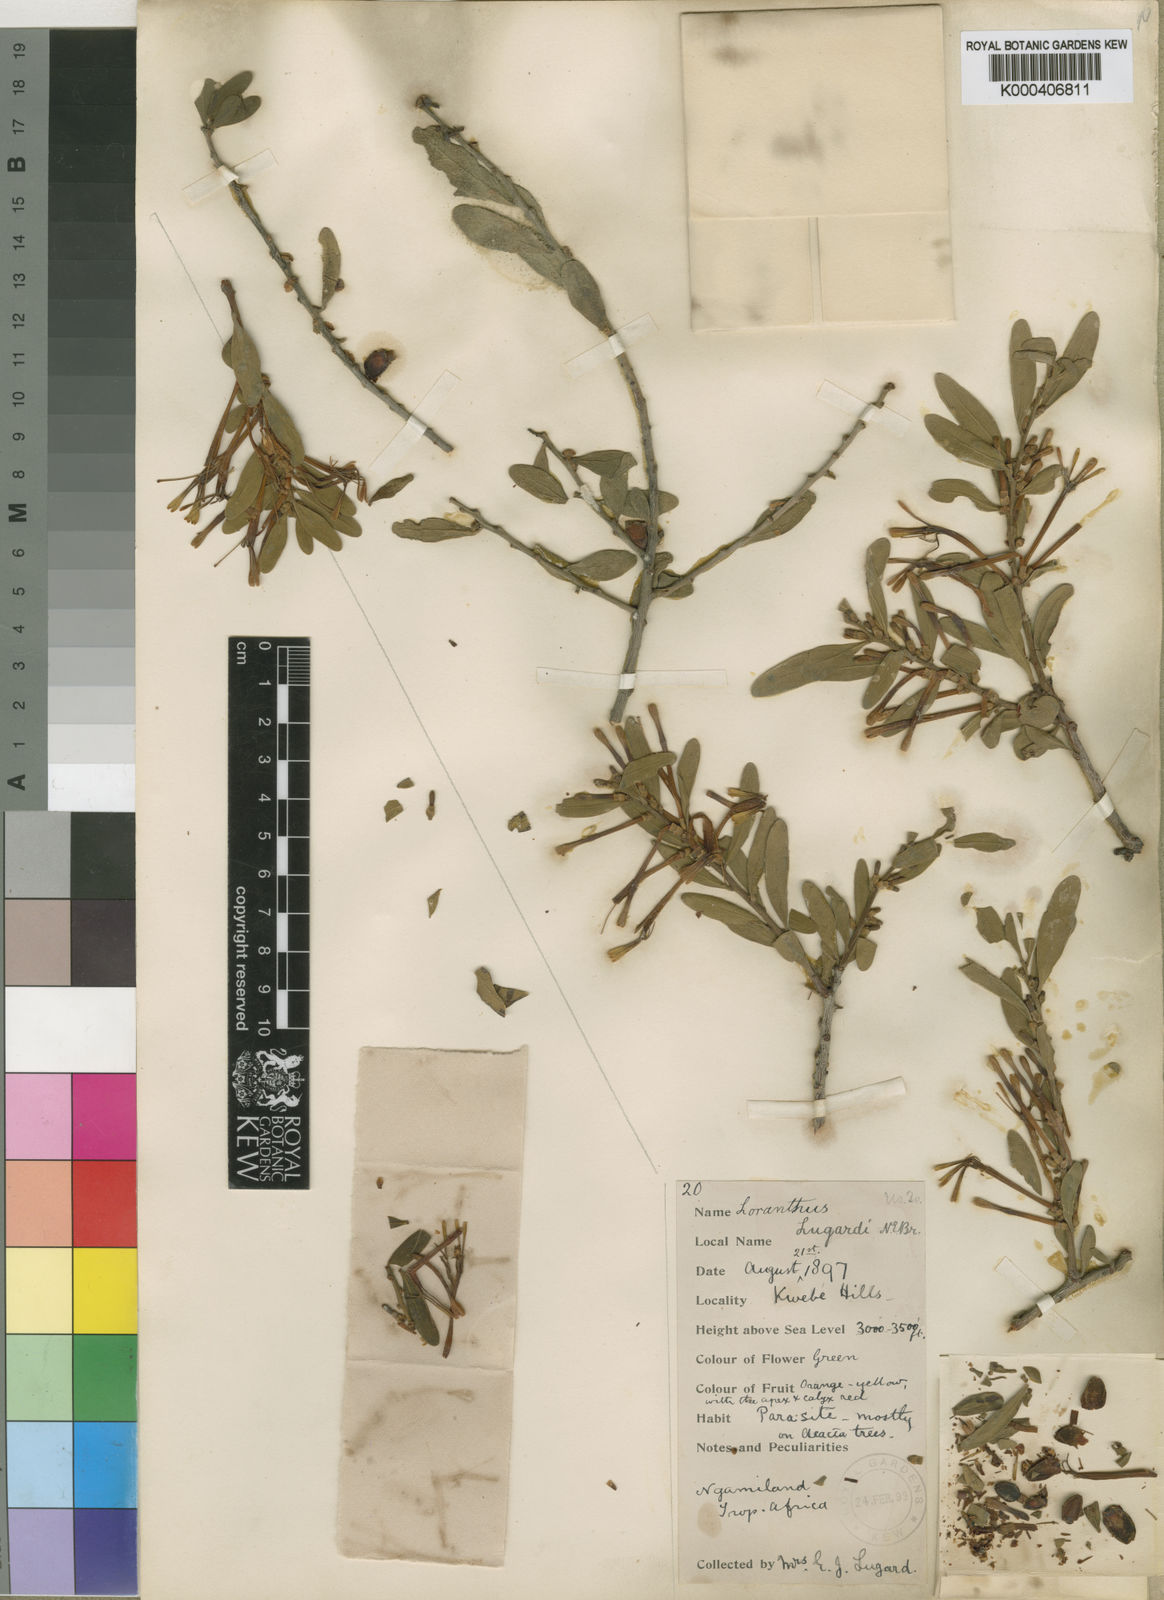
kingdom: Plantae
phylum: Tracheophyta
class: Magnoliopsida
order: Santalales
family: Loranthaceae
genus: Agelanthus
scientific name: Agelanthus lugardii
